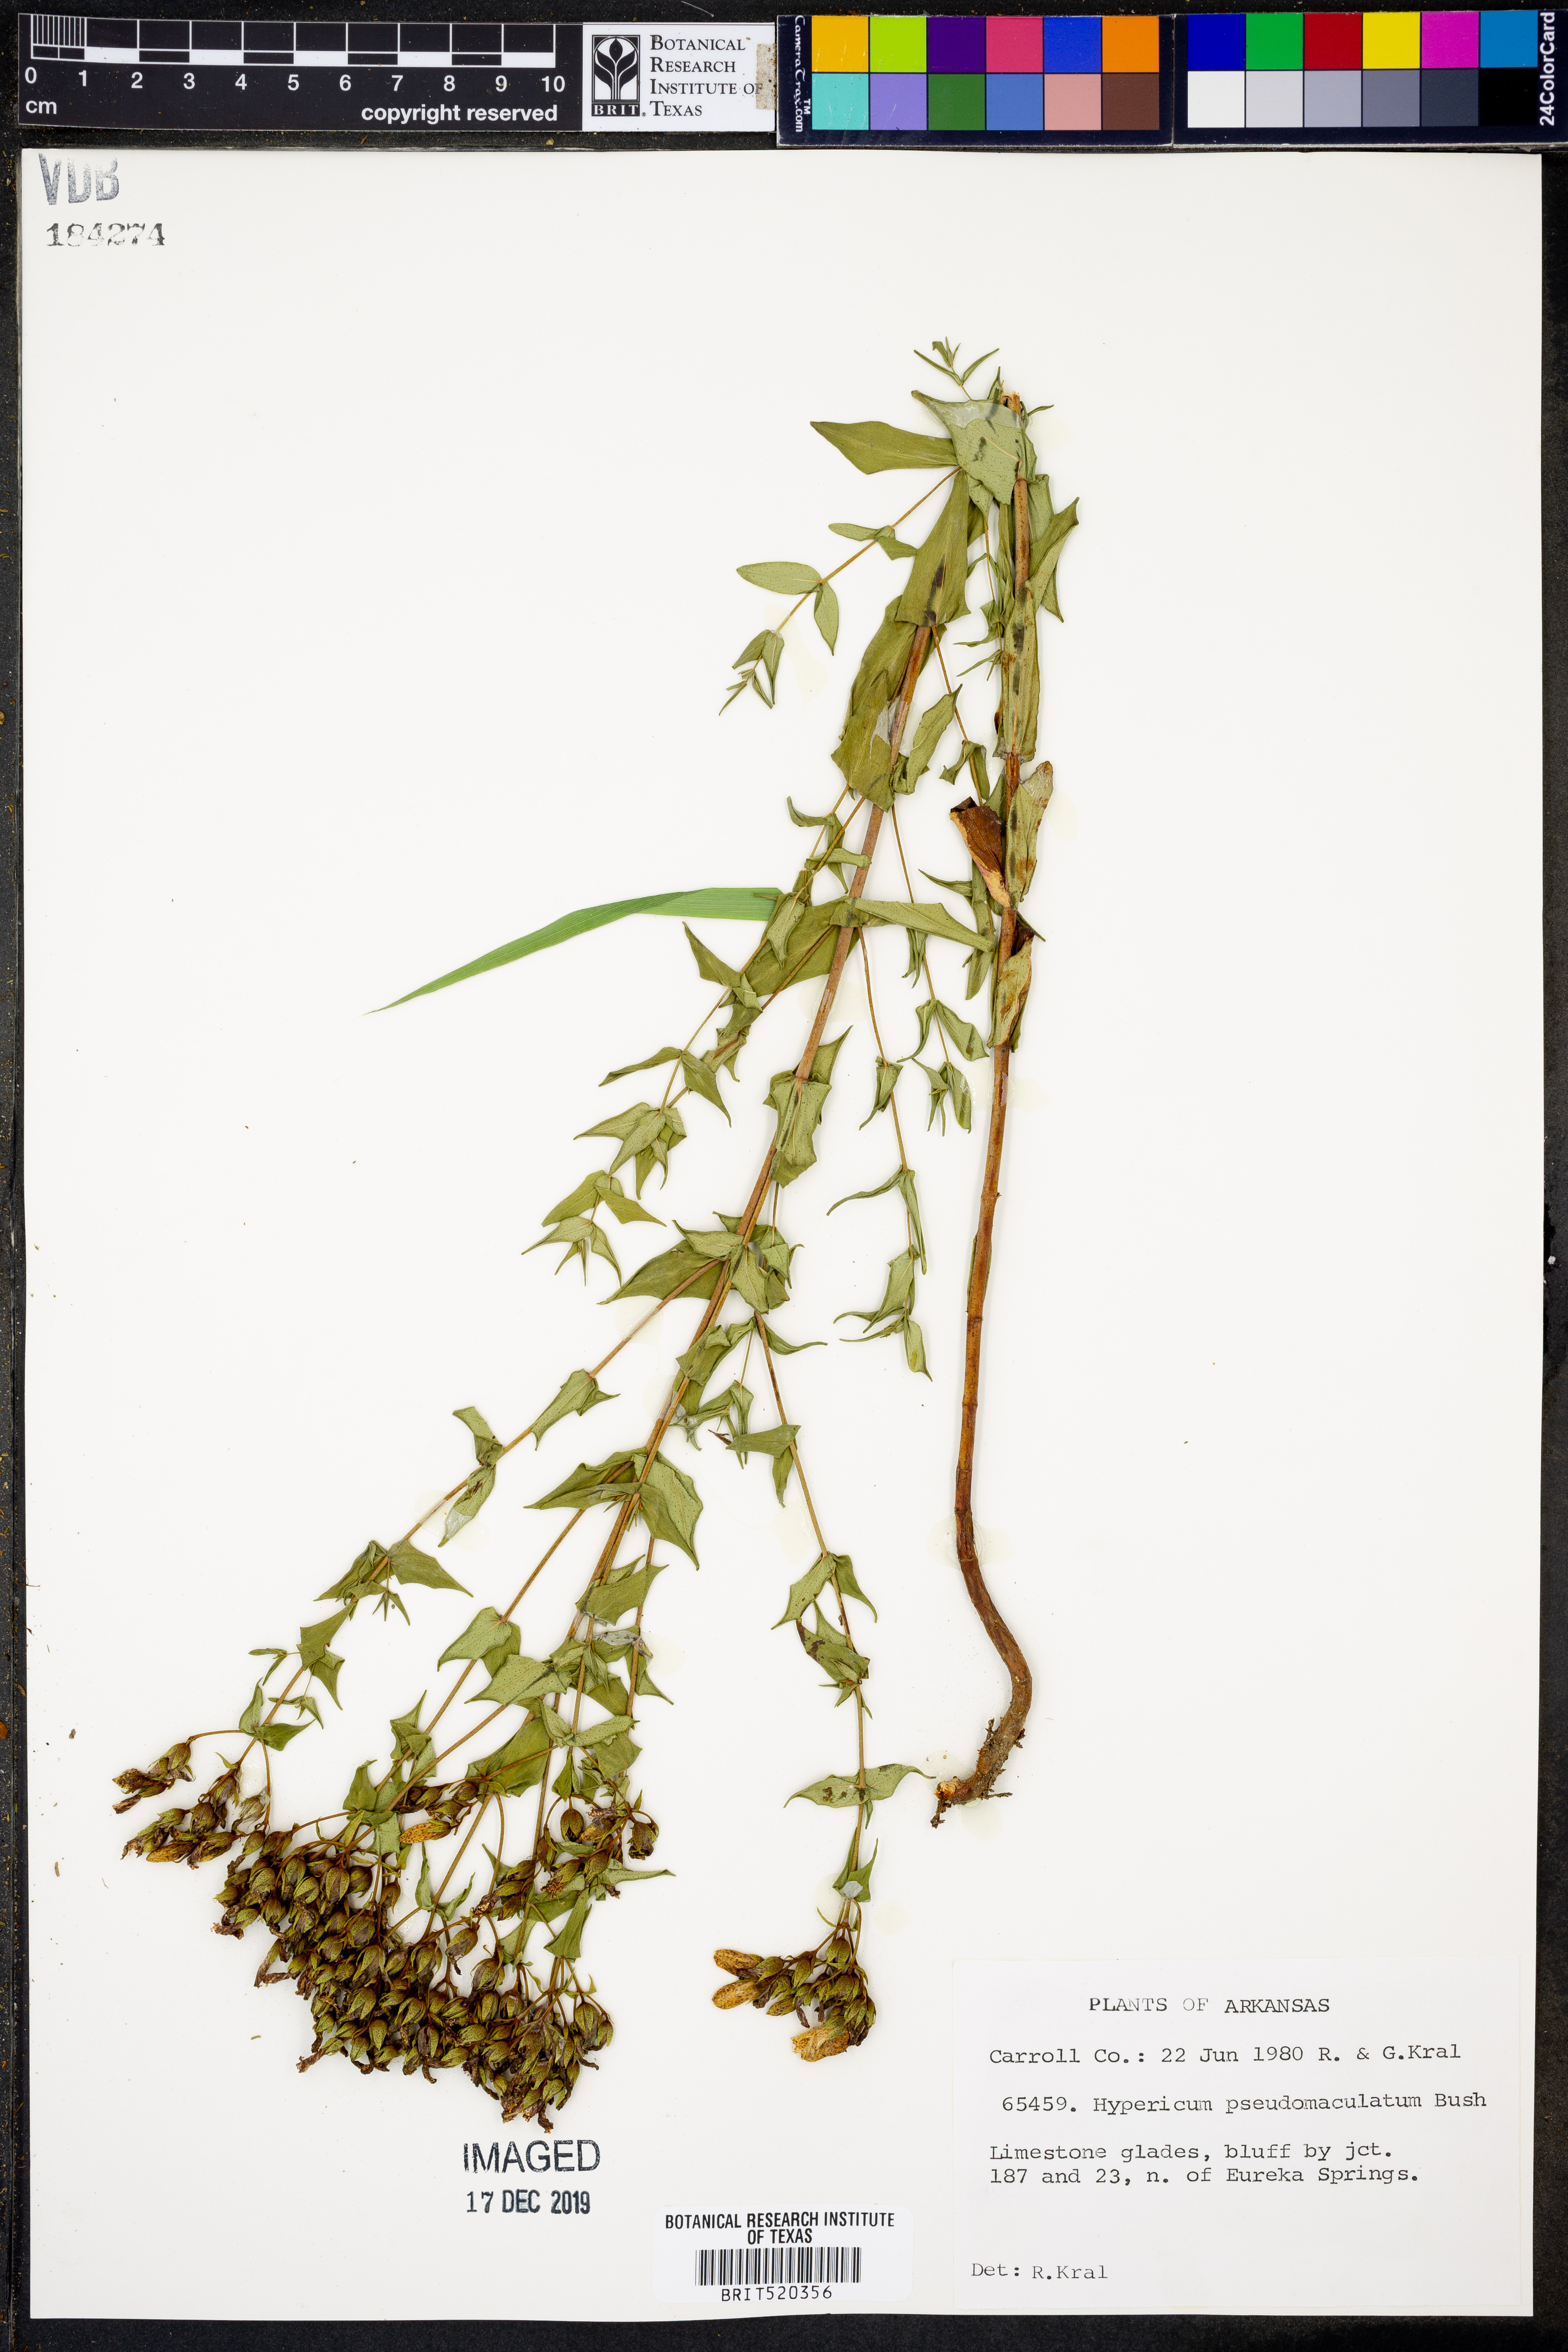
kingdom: Plantae
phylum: Tracheophyta
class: Magnoliopsida
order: Malpighiales
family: Hypericaceae
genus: Hypericum
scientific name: Hypericum pseudomaculatum
